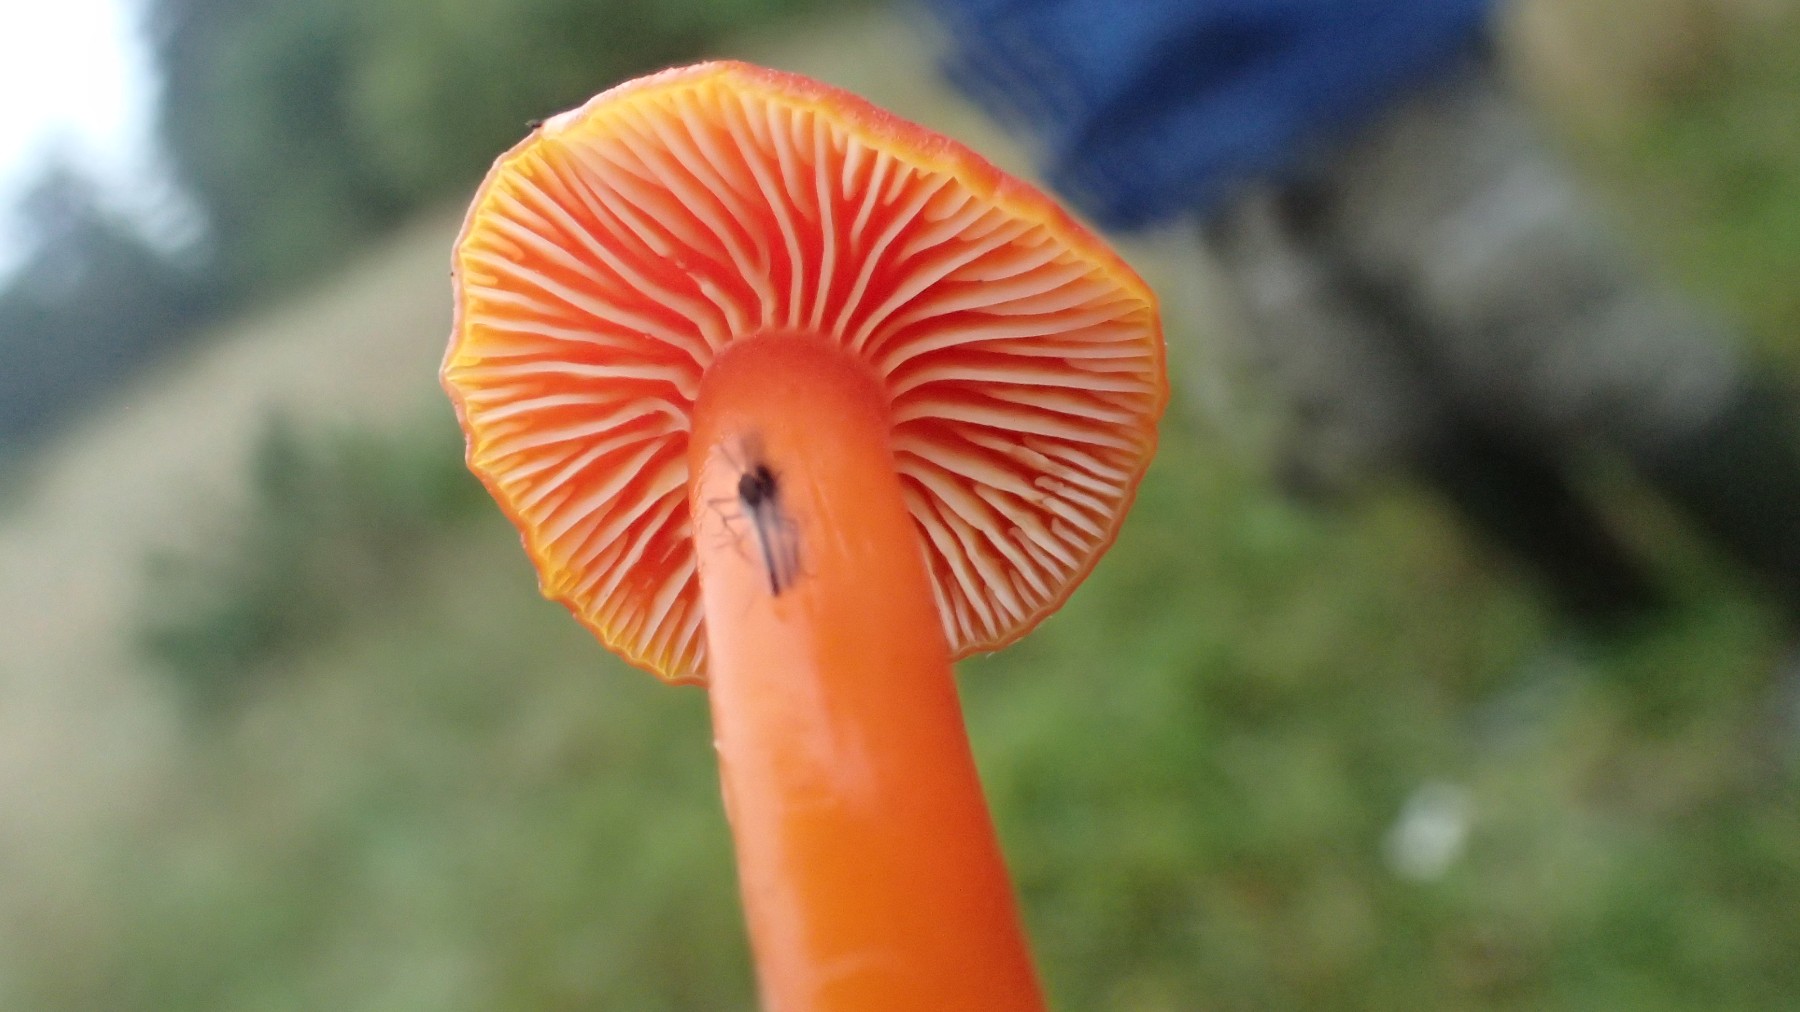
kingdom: Fungi
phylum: Basidiomycota
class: Agaricomycetes
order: Agaricales
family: Hygrophoraceae
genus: Hygrocybe
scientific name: Hygrocybe miniata
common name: mønje-vokshat
